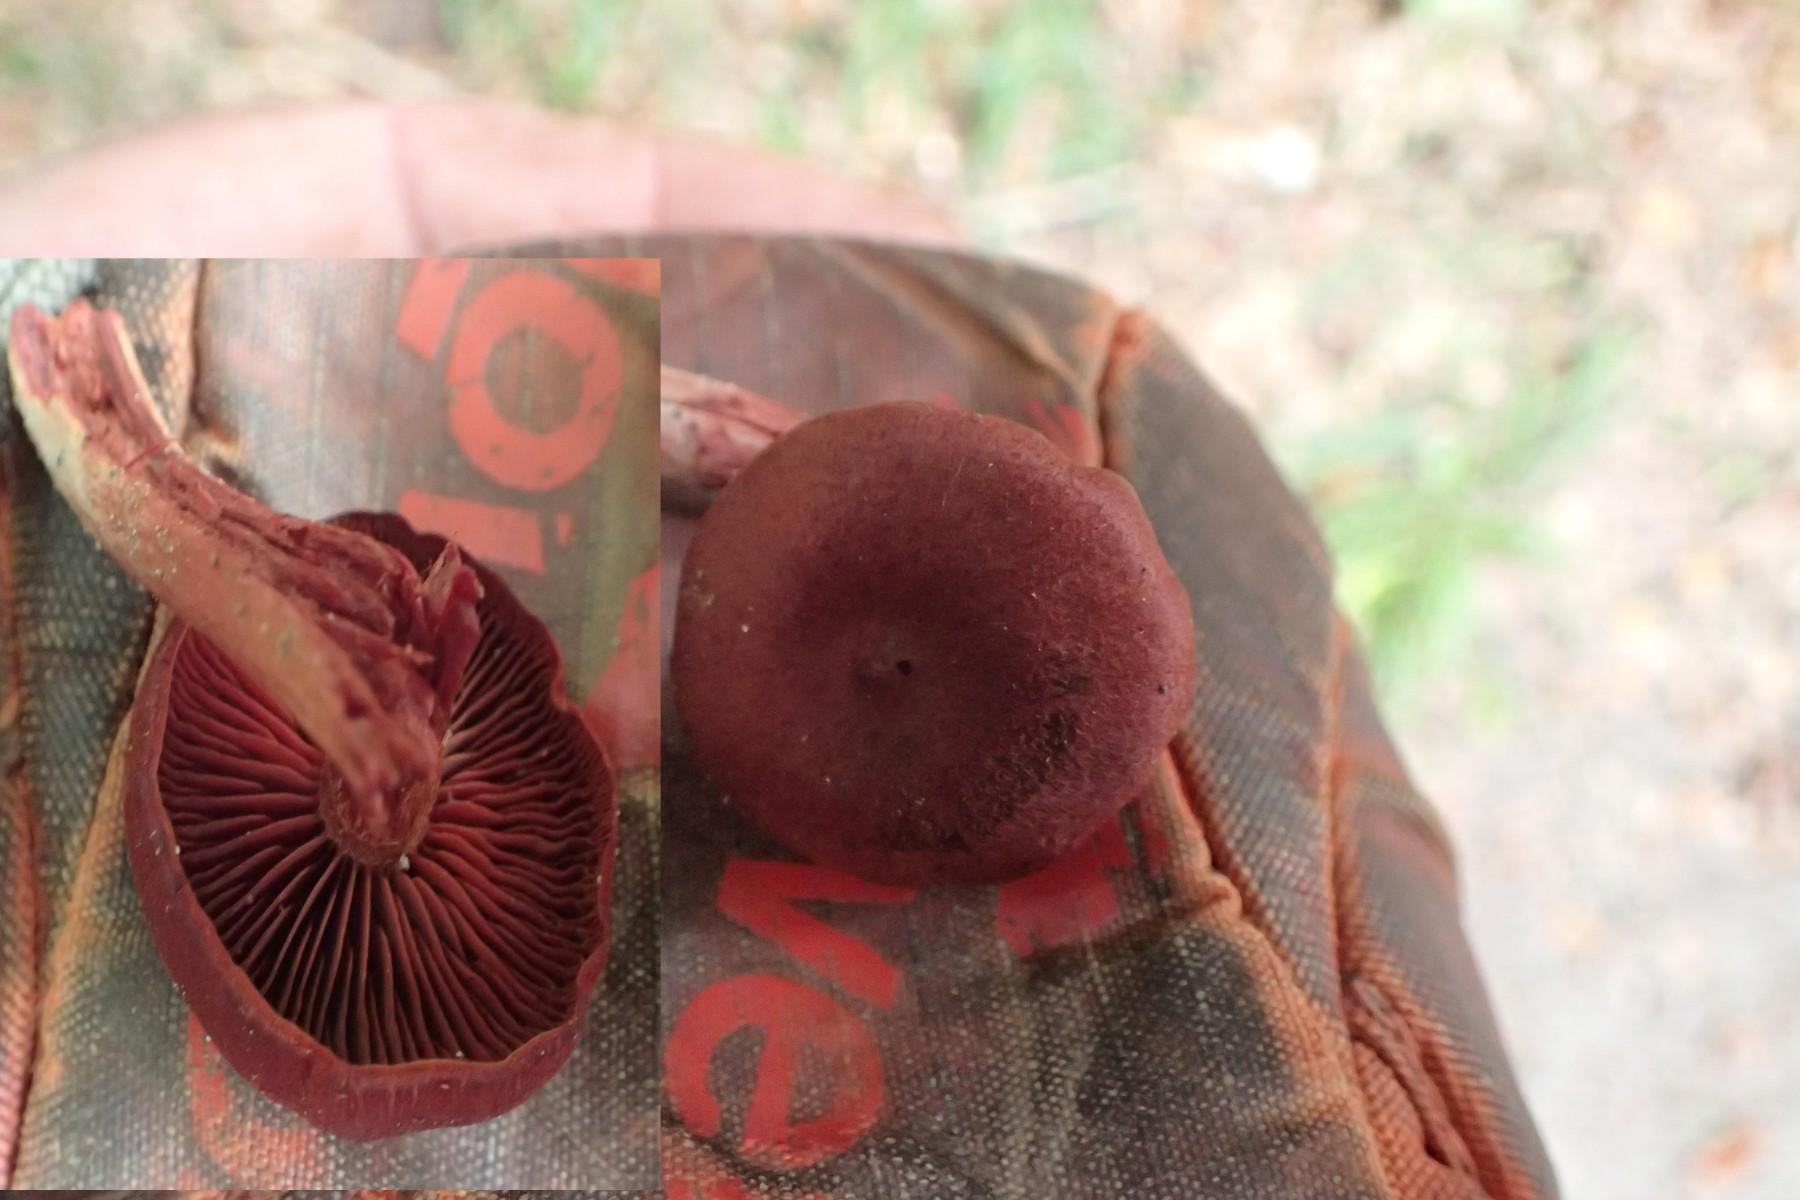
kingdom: Fungi
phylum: Basidiomycota
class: Agaricomycetes
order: Agaricales
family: Cortinariaceae
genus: Cortinarius
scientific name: Cortinarius
